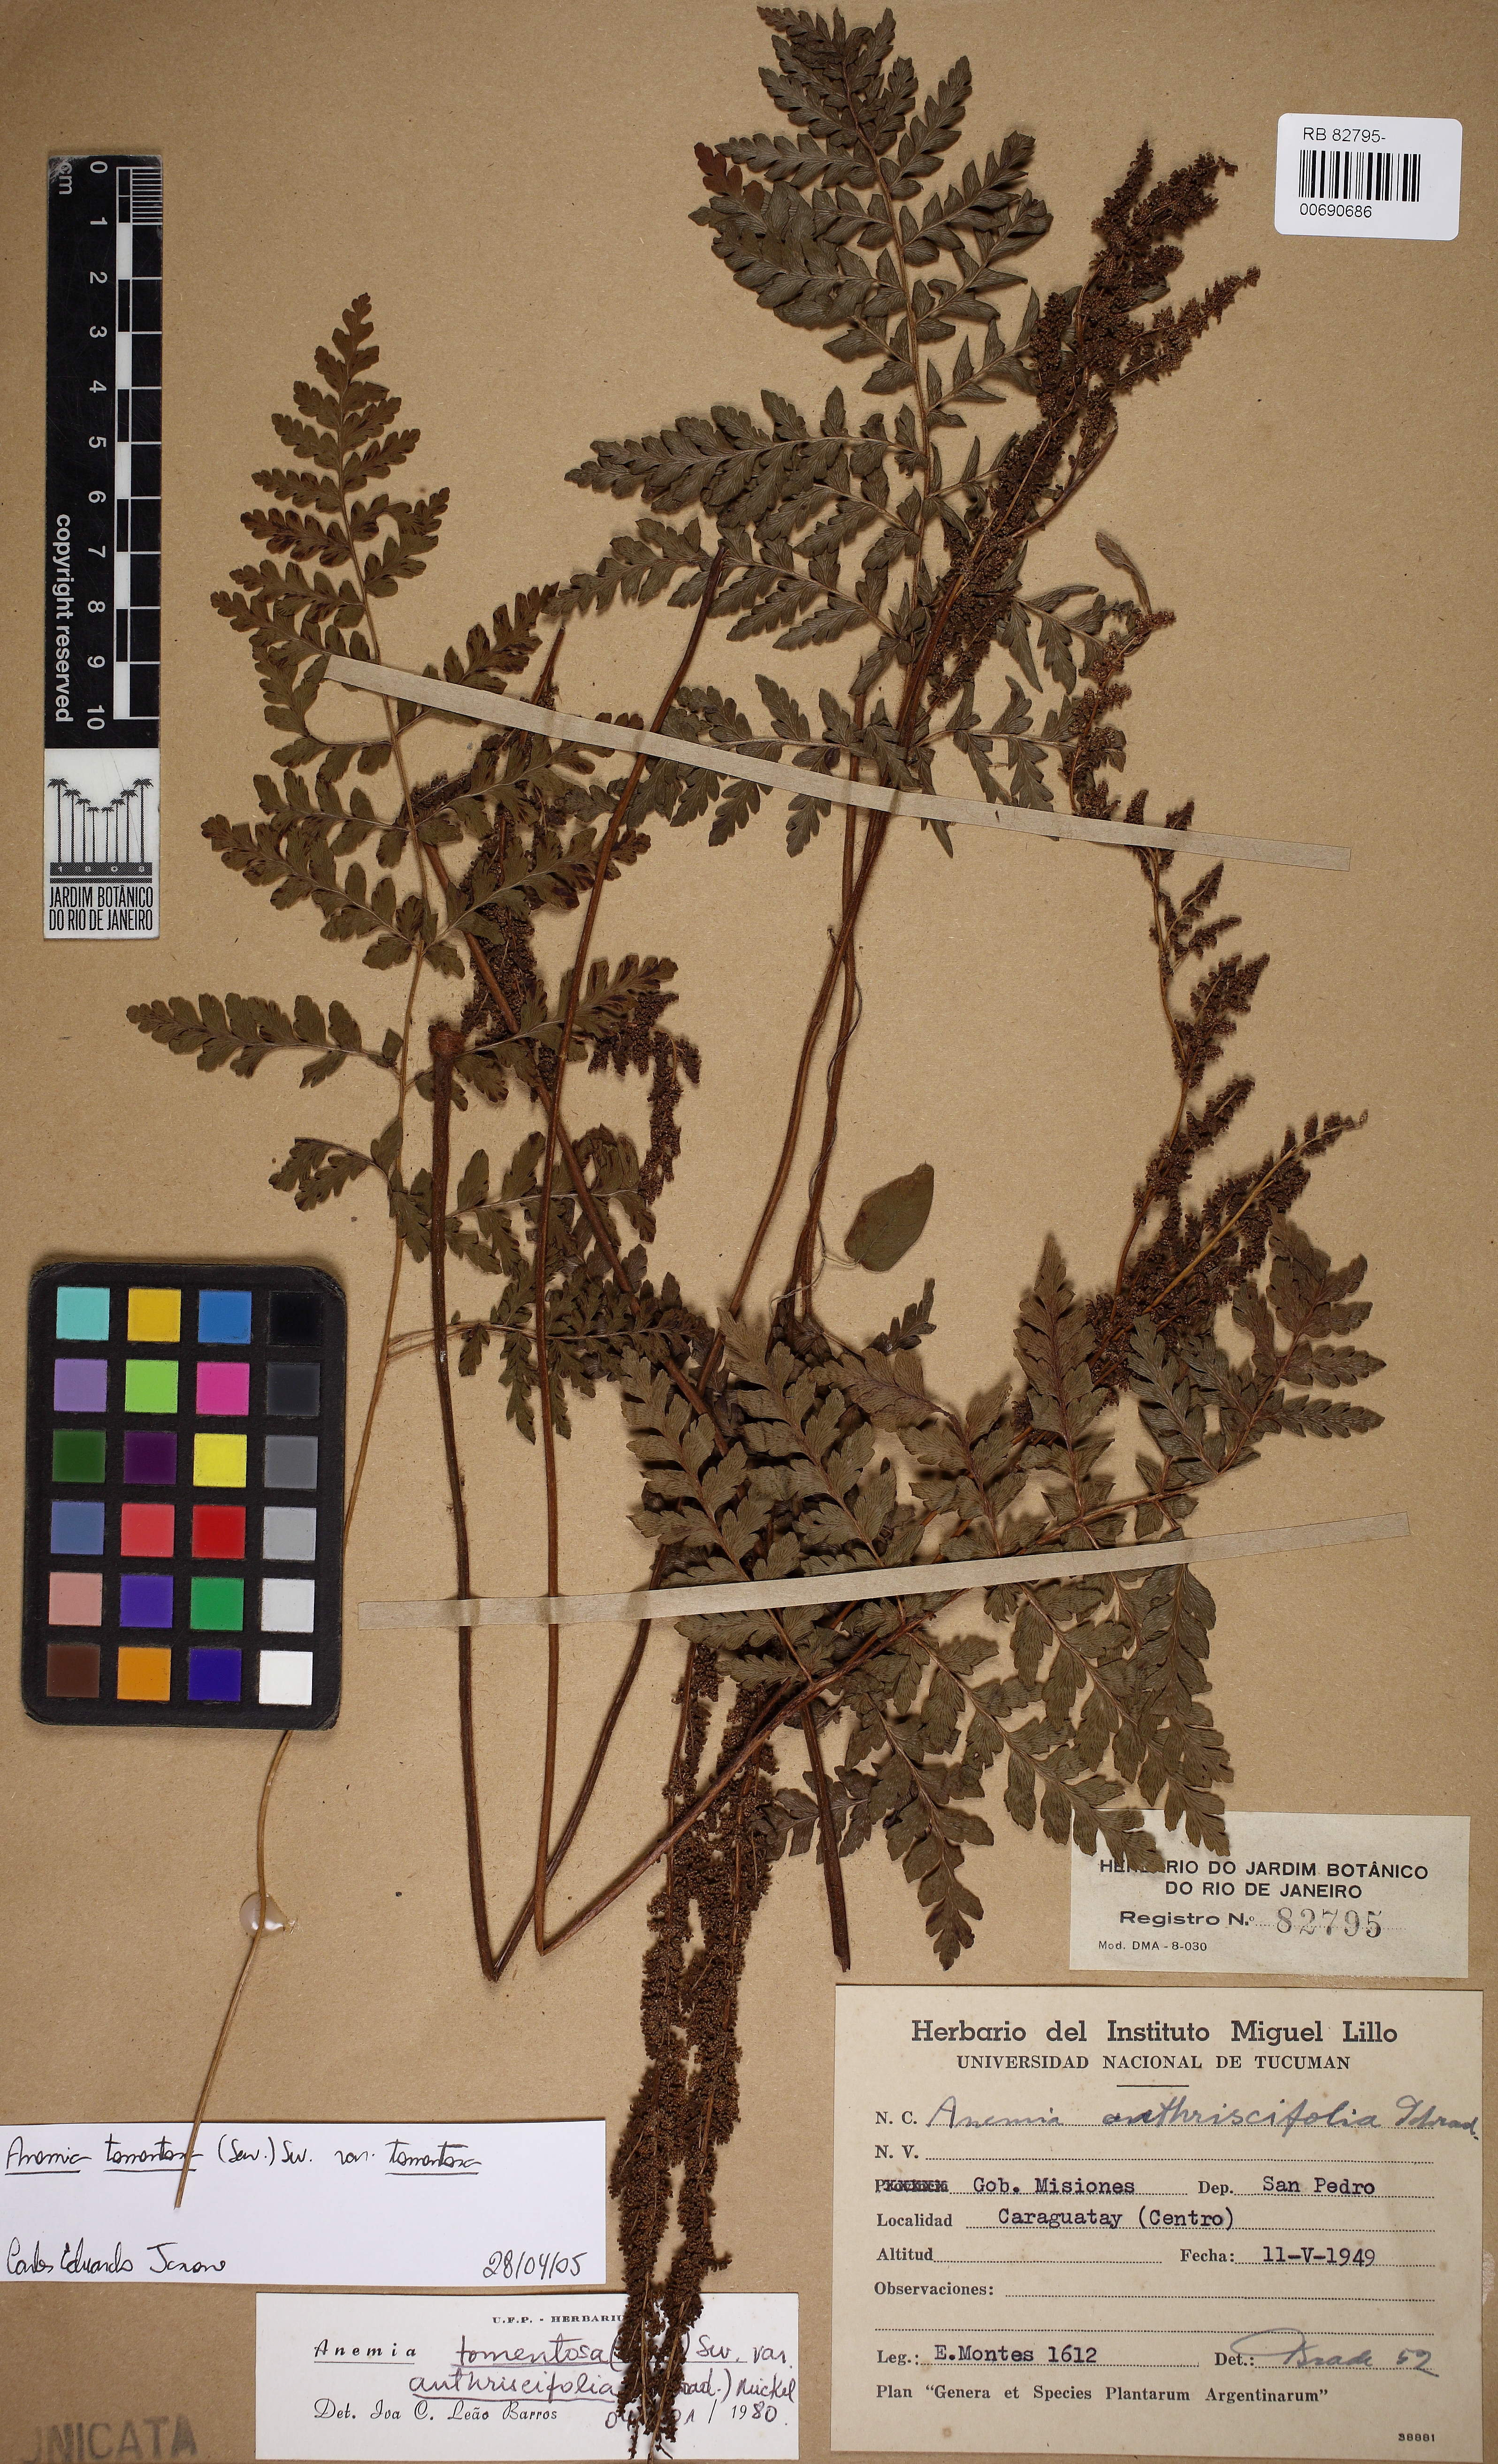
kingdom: Plantae
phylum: Tracheophyta
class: Polypodiopsida
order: Schizaeales
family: Anemiaceae
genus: Anemia
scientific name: Anemia tomentosa
